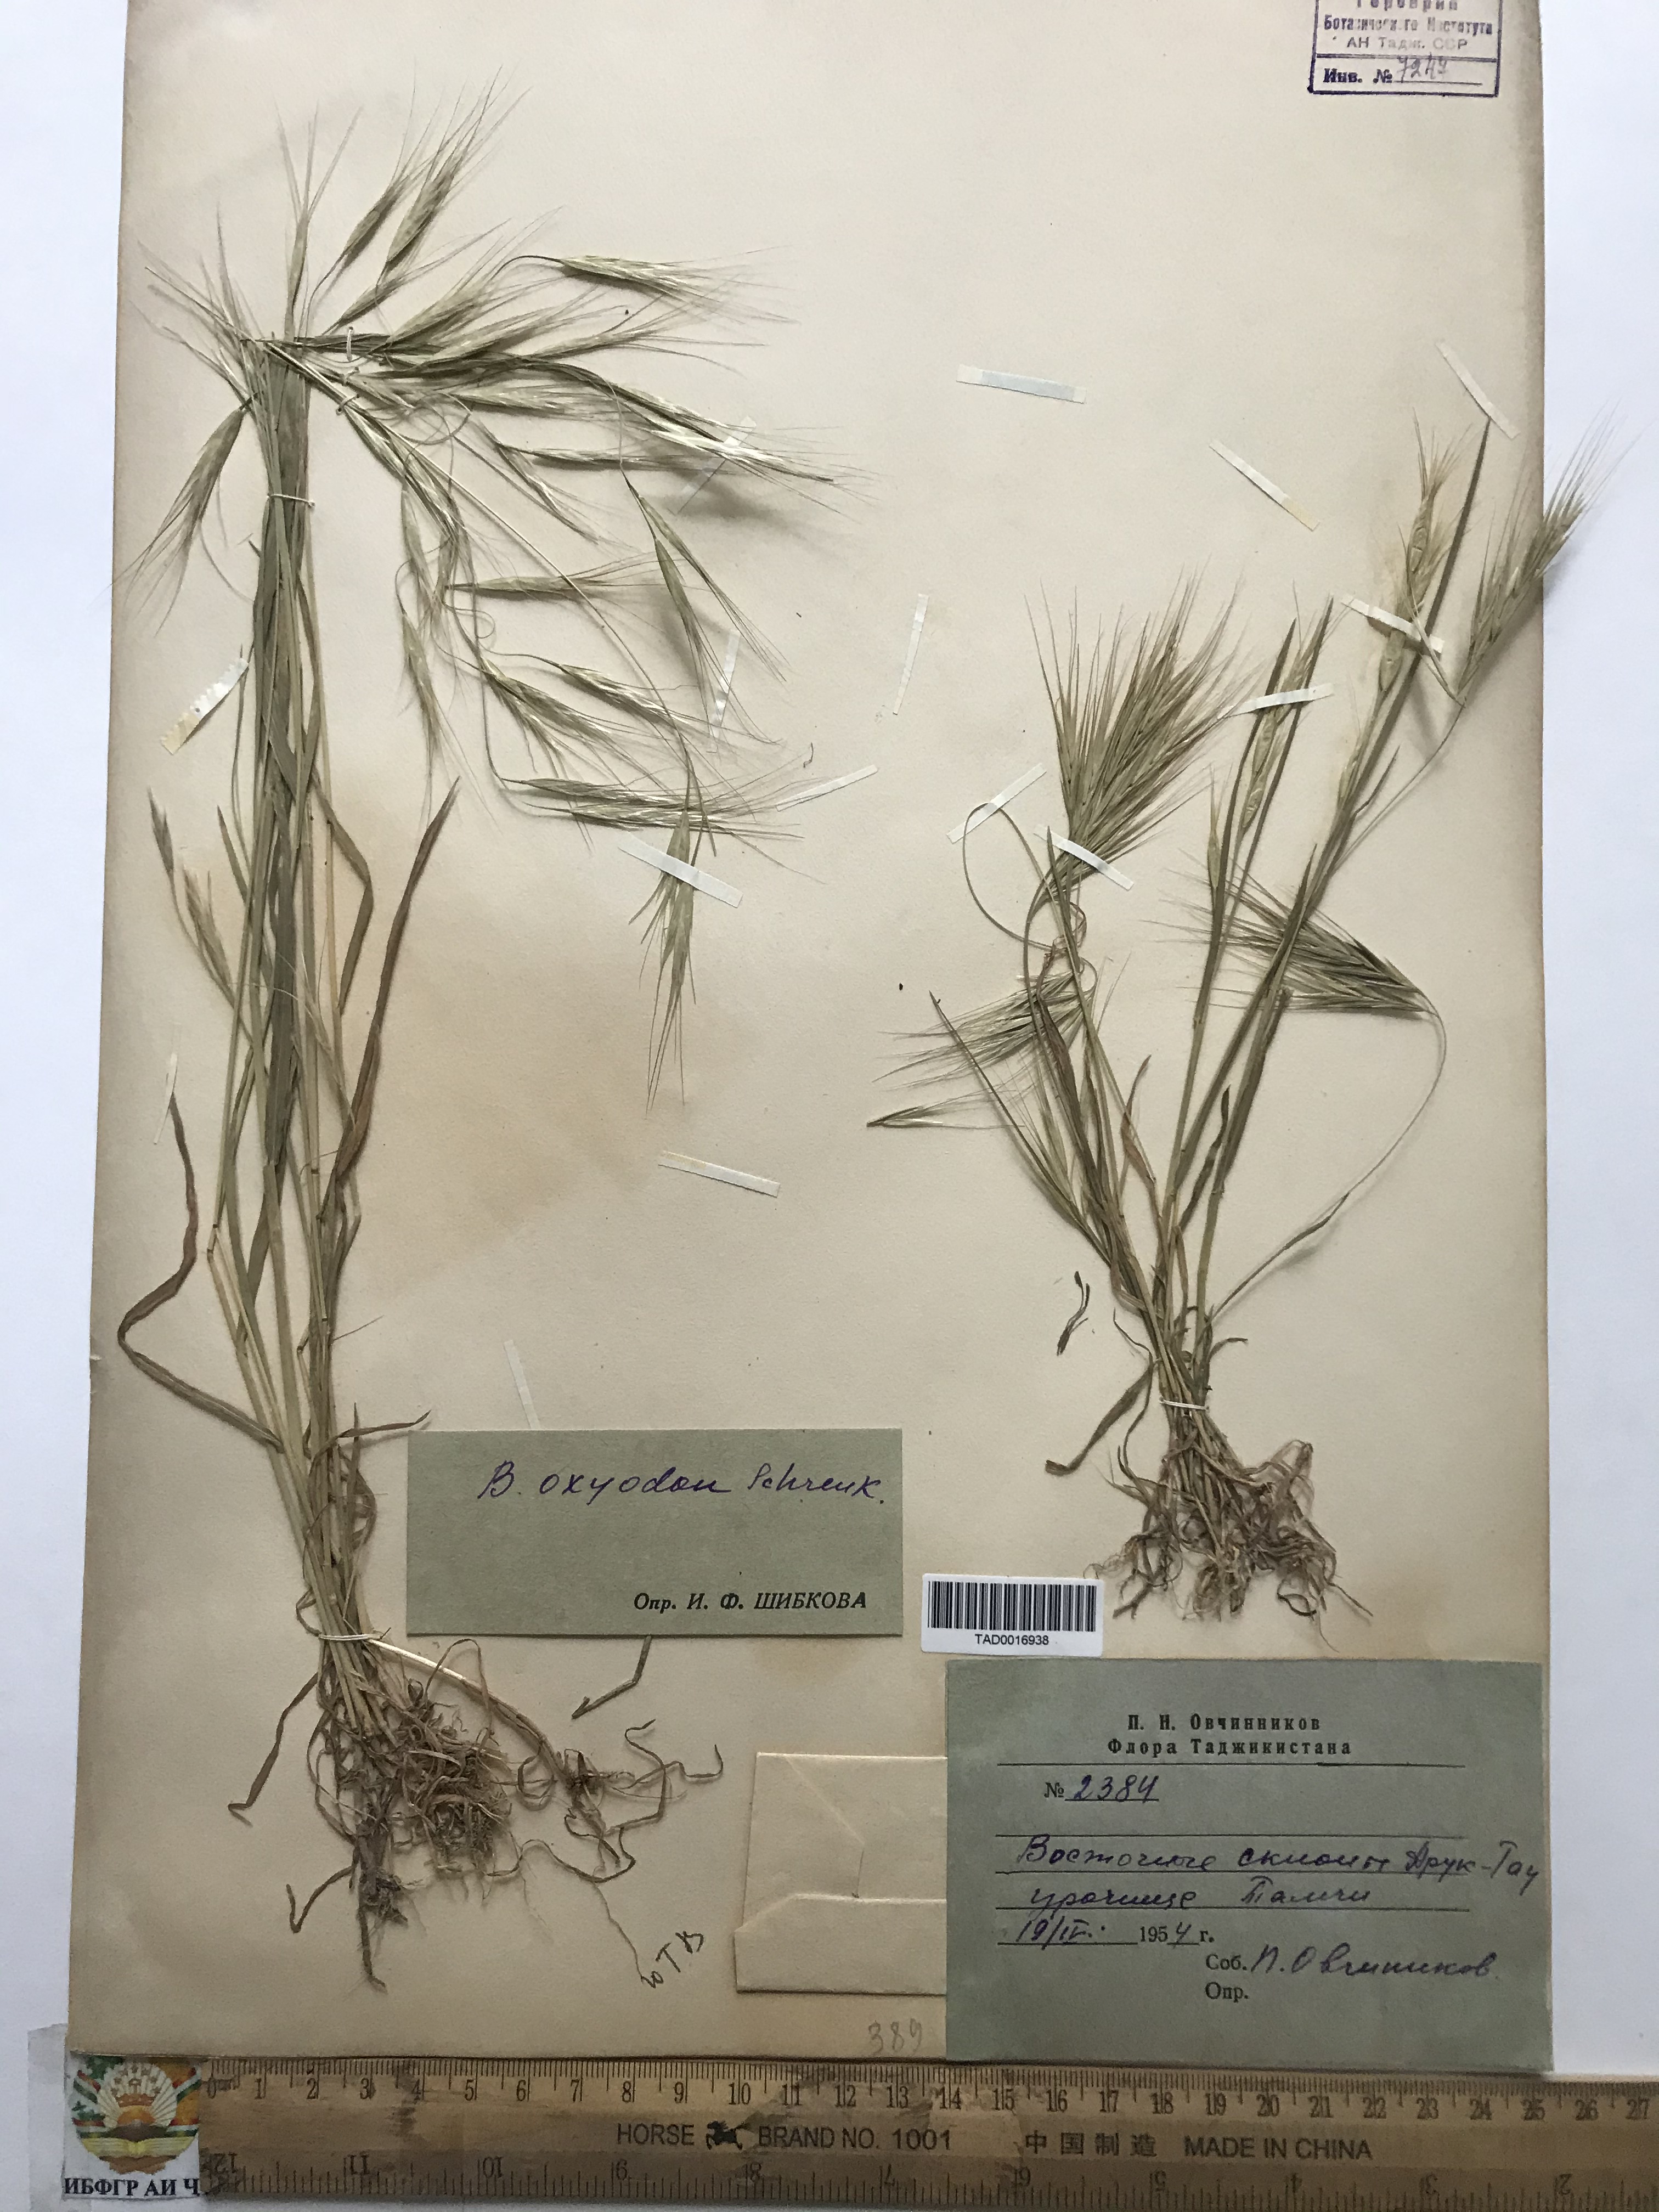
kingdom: Plantae
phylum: Tracheophyta
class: Liliopsida
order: Poales
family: Poaceae
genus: Bromus
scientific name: Bromus oxyodon
